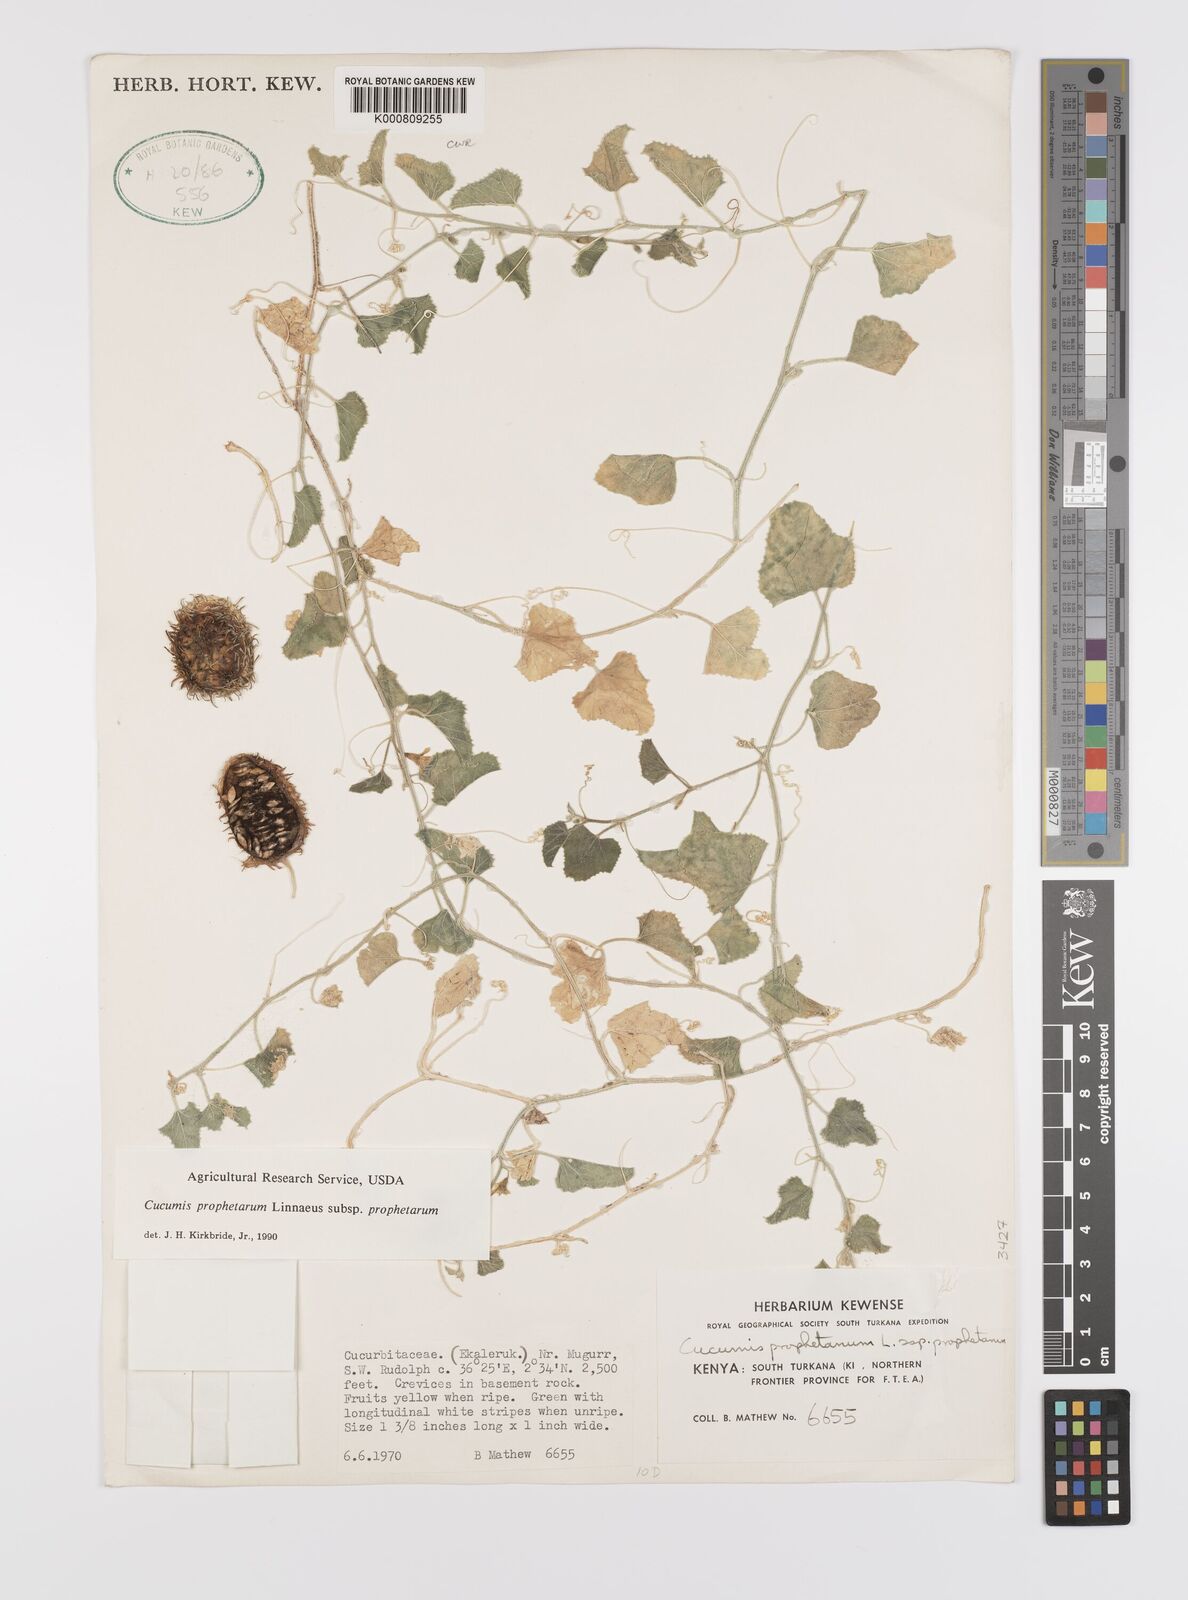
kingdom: Plantae
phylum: Tracheophyta
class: Magnoliopsida
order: Cucurbitales
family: Cucurbitaceae
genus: Cucumis
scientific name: Cucumis prophetarum
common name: Wild cucumber
